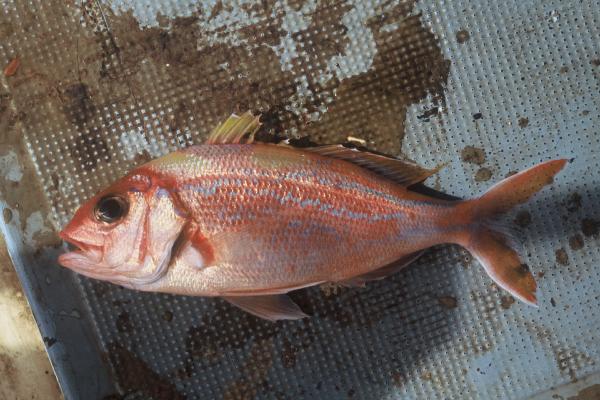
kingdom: Animalia
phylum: Chordata
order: Perciformes
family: Lutjanidae
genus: Pristipomoides
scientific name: Pristipomoides argyrogrammicus
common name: Big-eyed snapper
